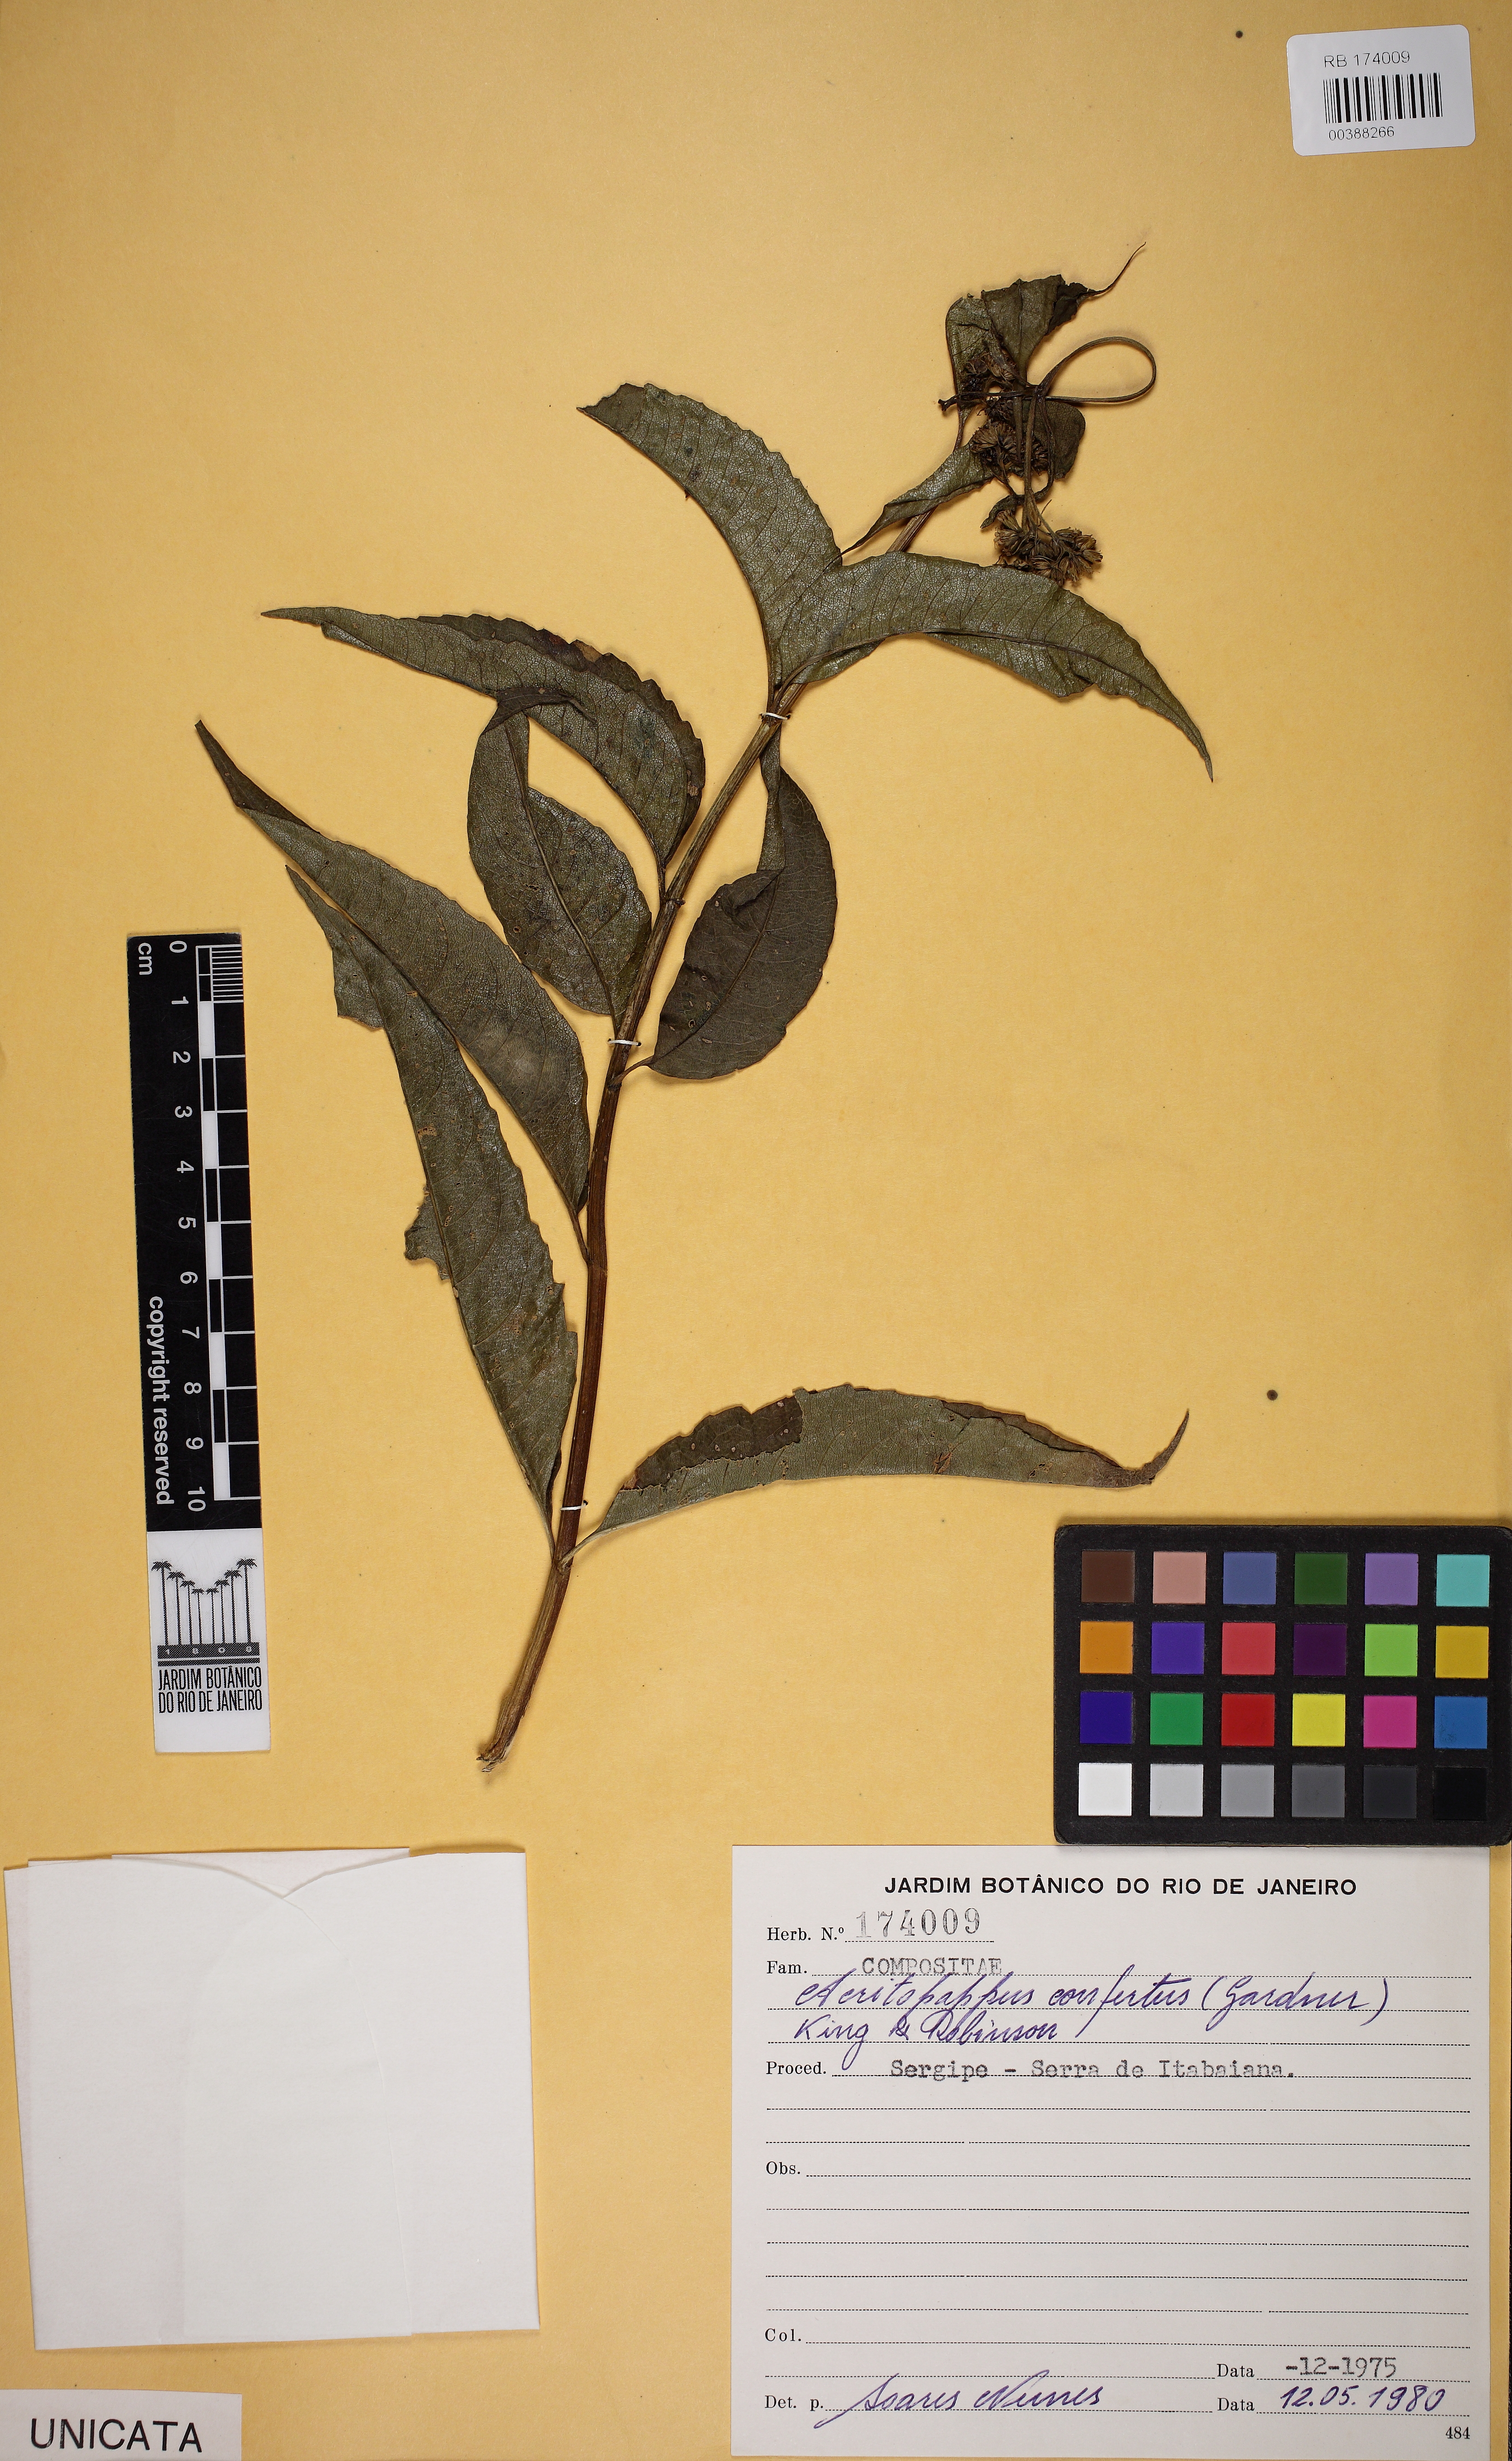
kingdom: Plantae
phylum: Tracheophyta
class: Magnoliopsida
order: Asterales
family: Asteraceae
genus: Acritopappus
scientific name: Acritopappus confertus
